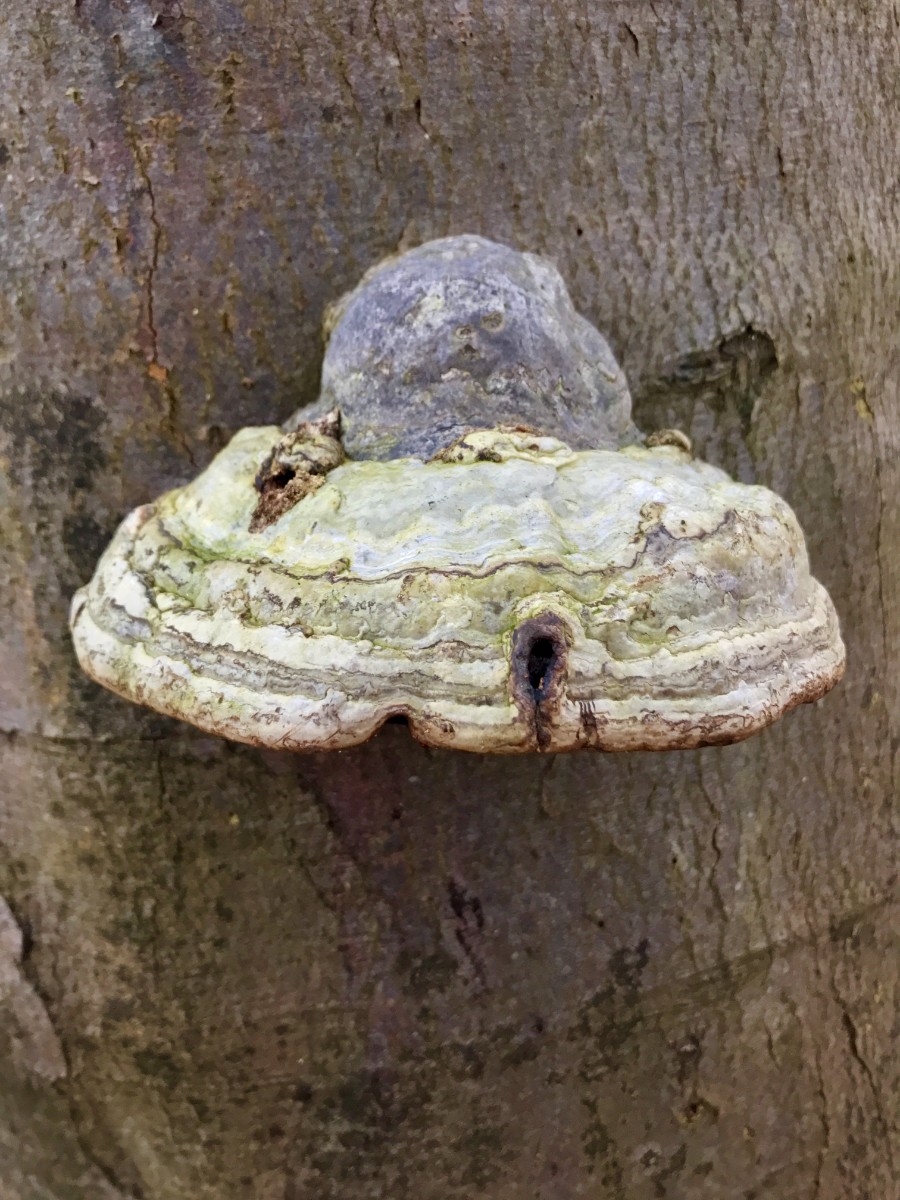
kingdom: Fungi
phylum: Basidiomycota
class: Agaricomycetes
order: Polyporales
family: Polyporaceae
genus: Fomes
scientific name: Fomes fomentarius
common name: tøndersvamp
